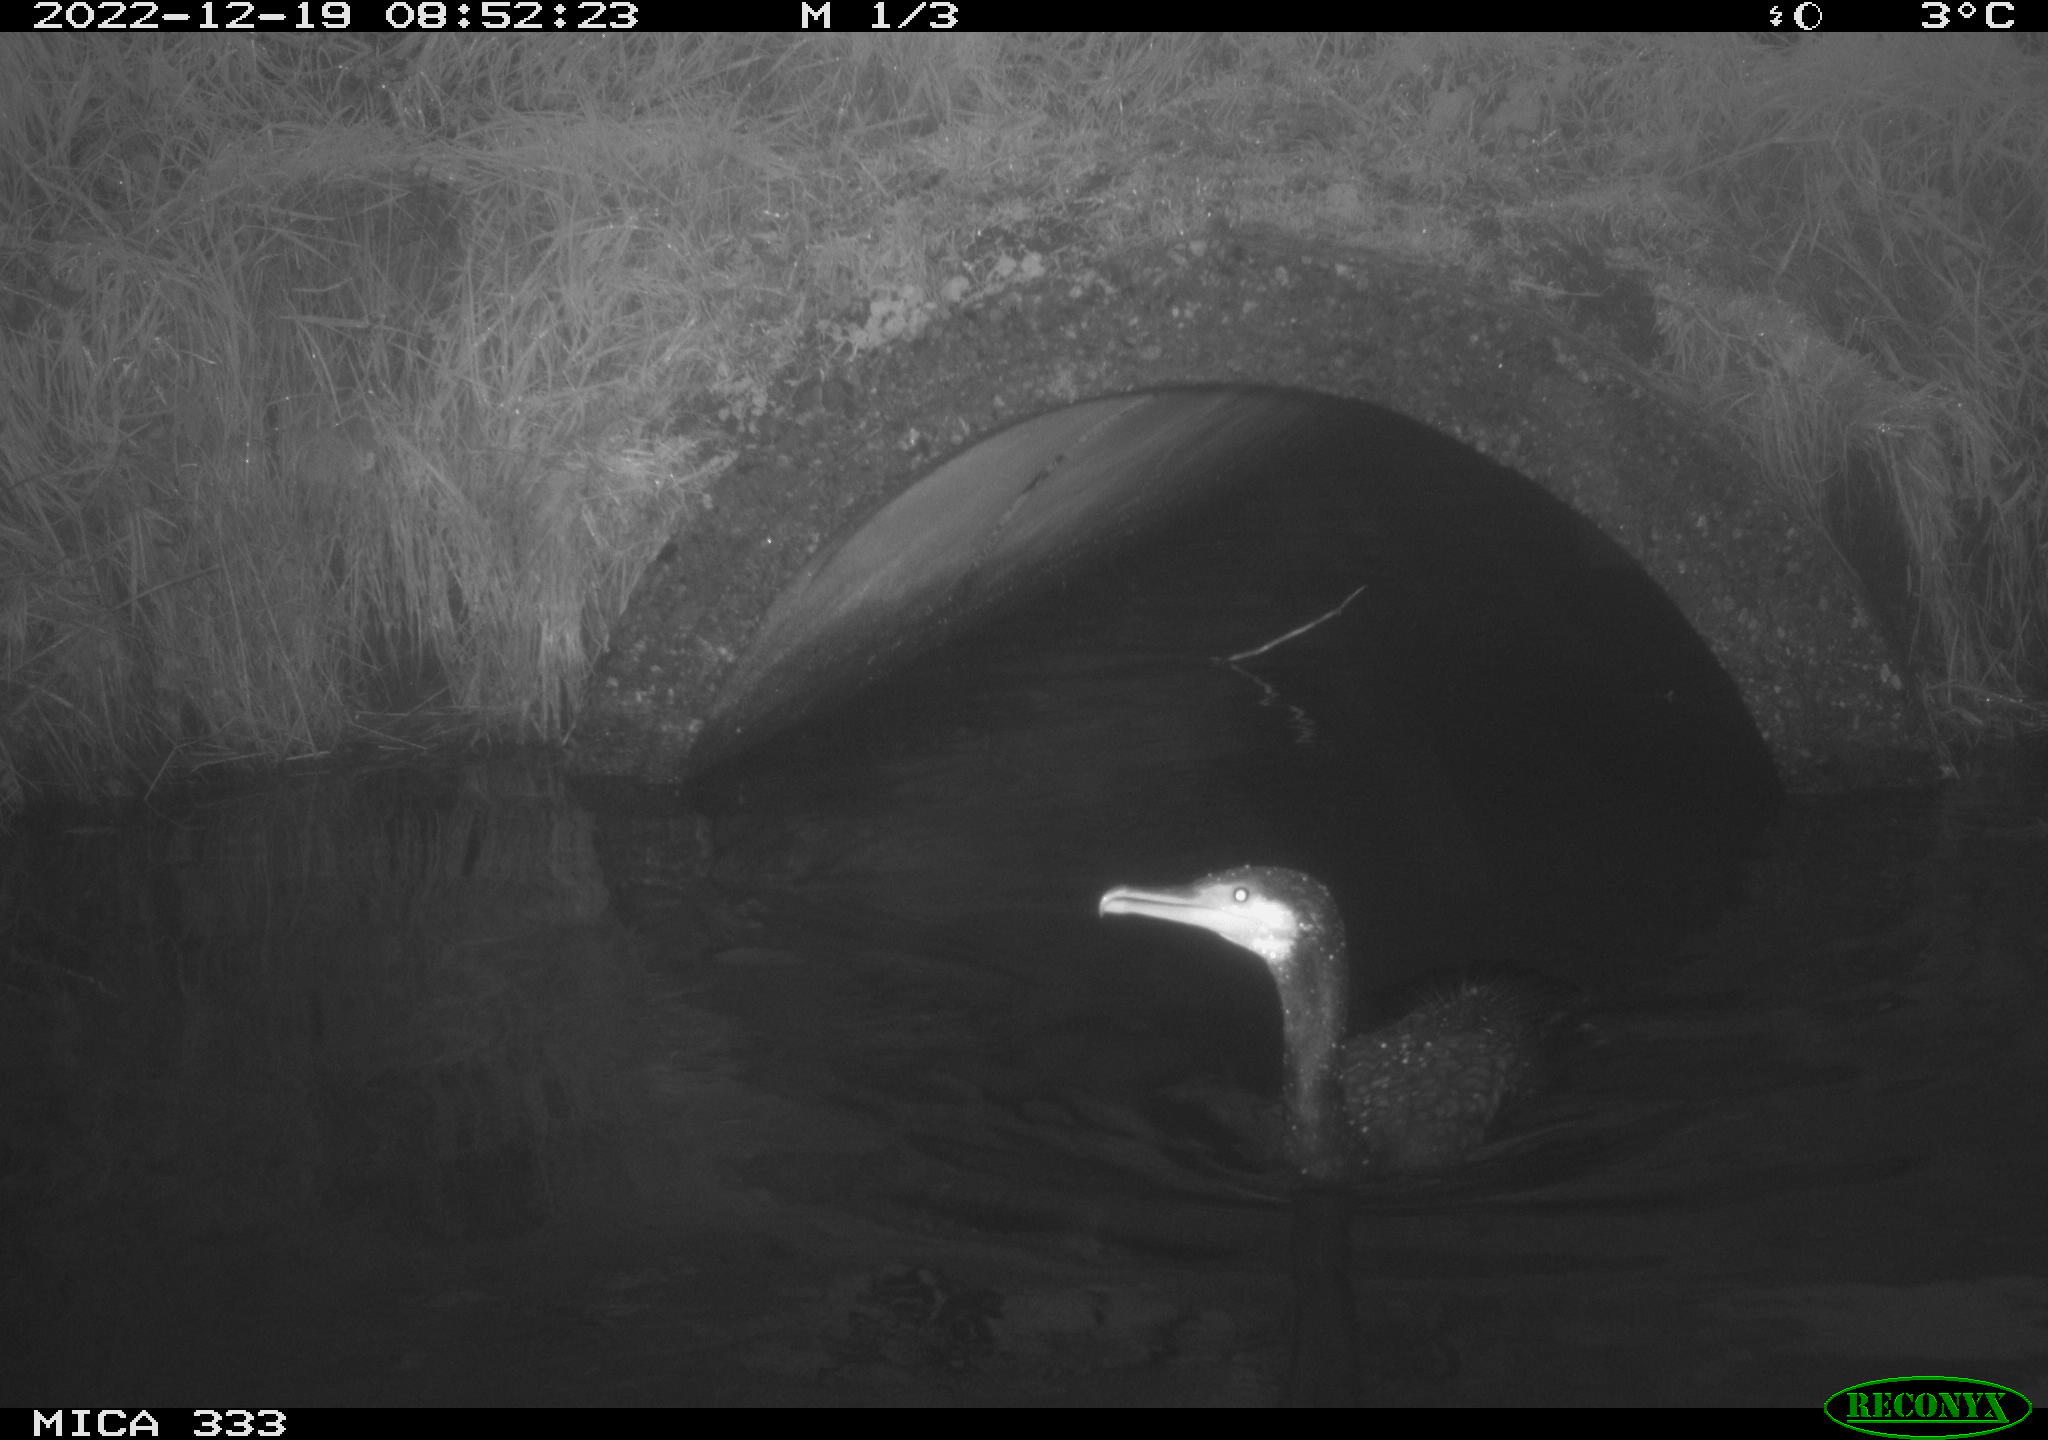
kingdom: Animalia
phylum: Chordata
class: Aves
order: Suliformes
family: Phalacrocoracidae
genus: Phalacrocorax
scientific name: Phalacrocorax carbo
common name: Great cormorant
